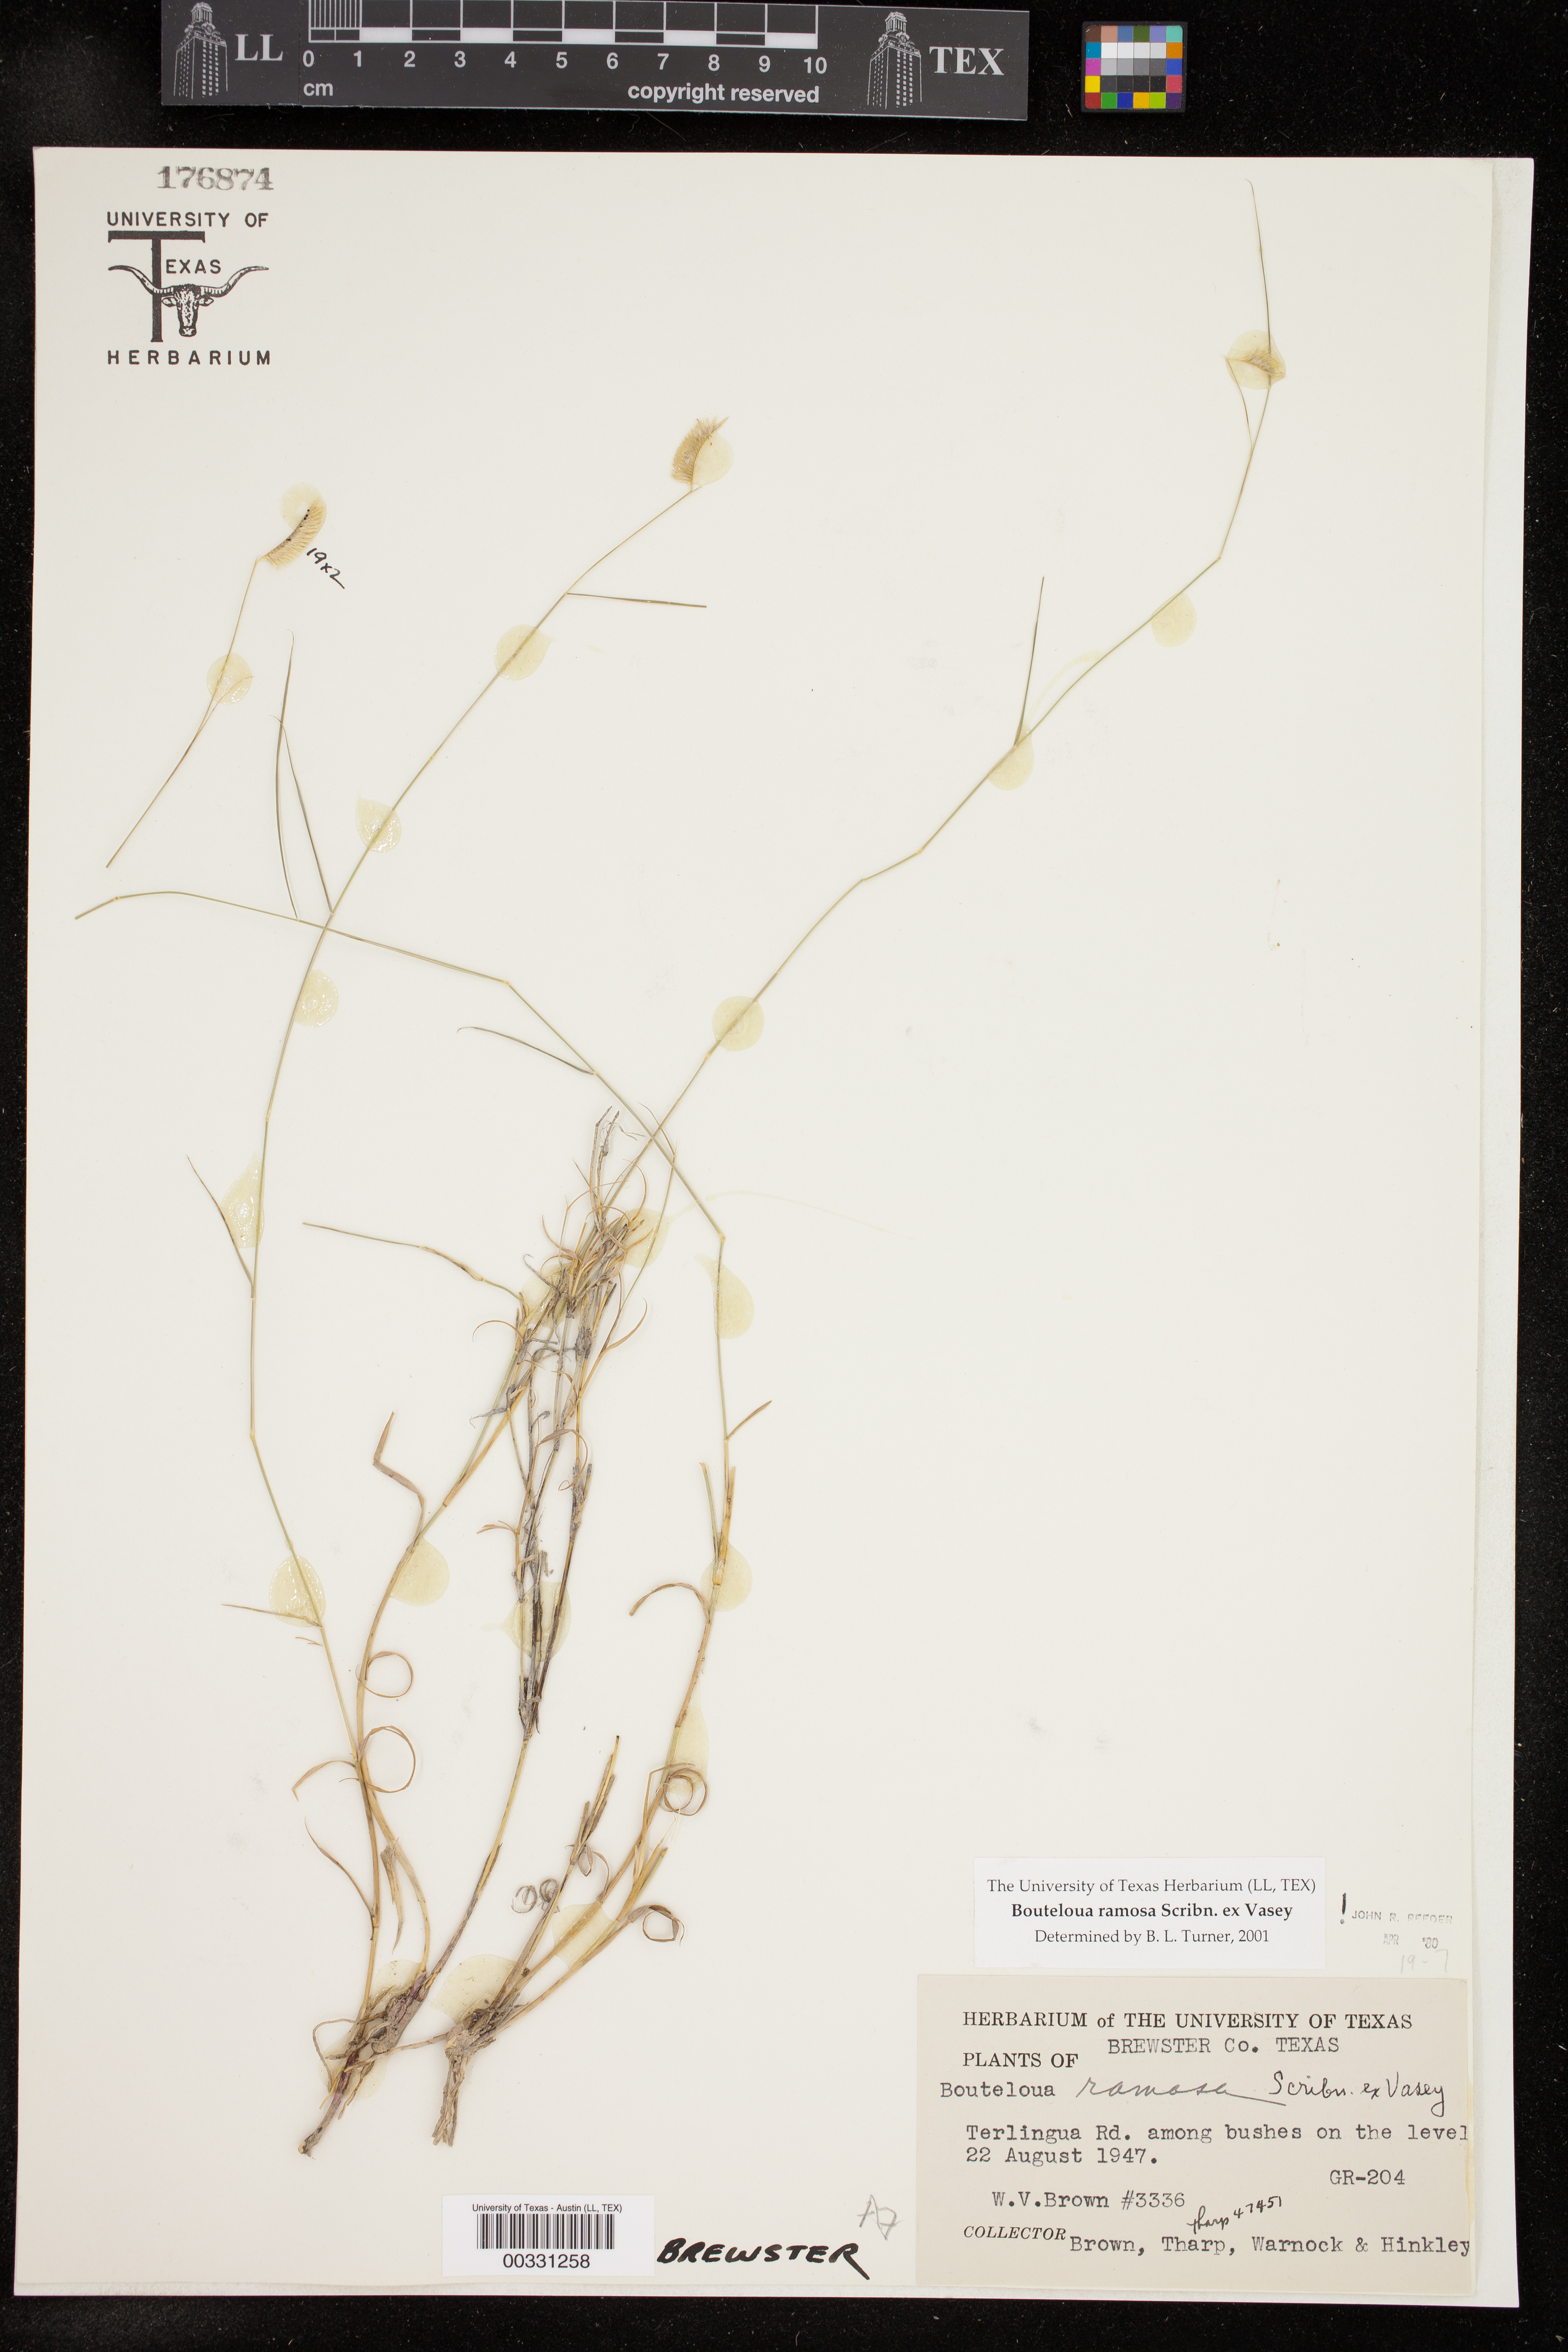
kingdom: Plantae
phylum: Tracheophyta
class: Liliopsida
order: Poales
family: Poaceae
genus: Bouteloua
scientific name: Bouteloua ramosa
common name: Chino grama
